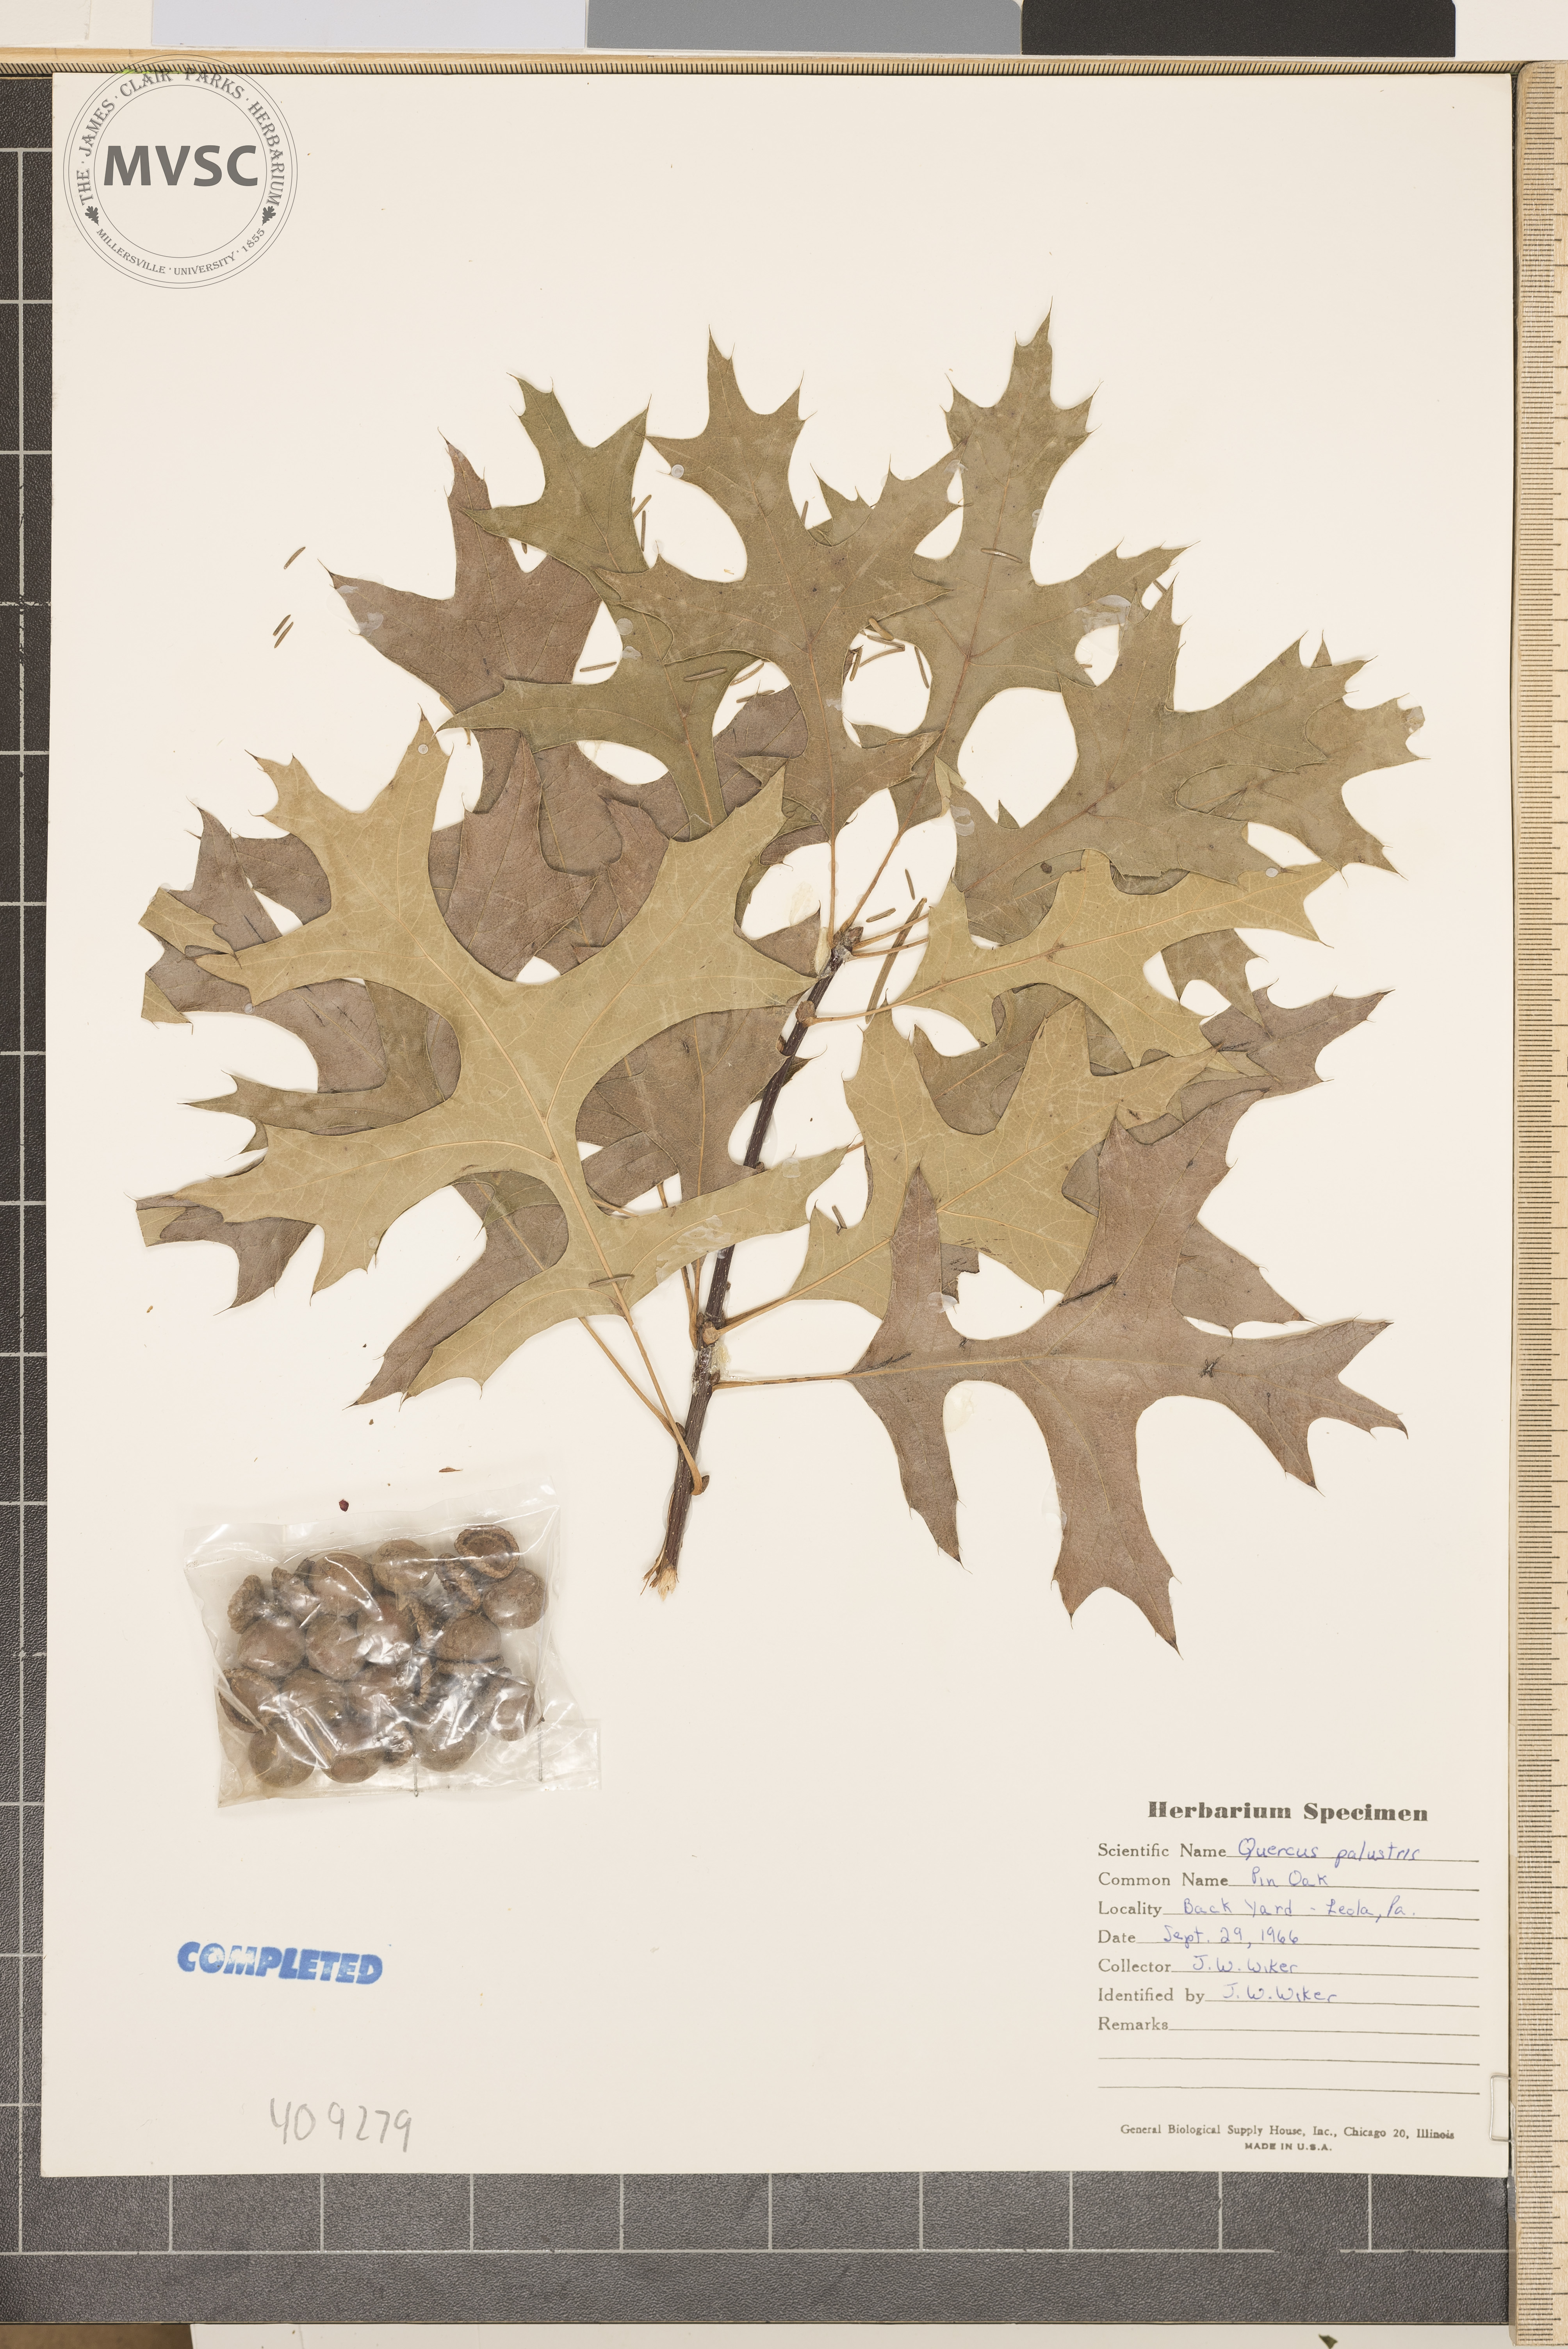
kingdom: Plantae
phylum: Tracheophyta
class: Magnoliopsida
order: Fagales
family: Fagaceae
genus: Quercus
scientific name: Quercus palustris
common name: Pin oak
